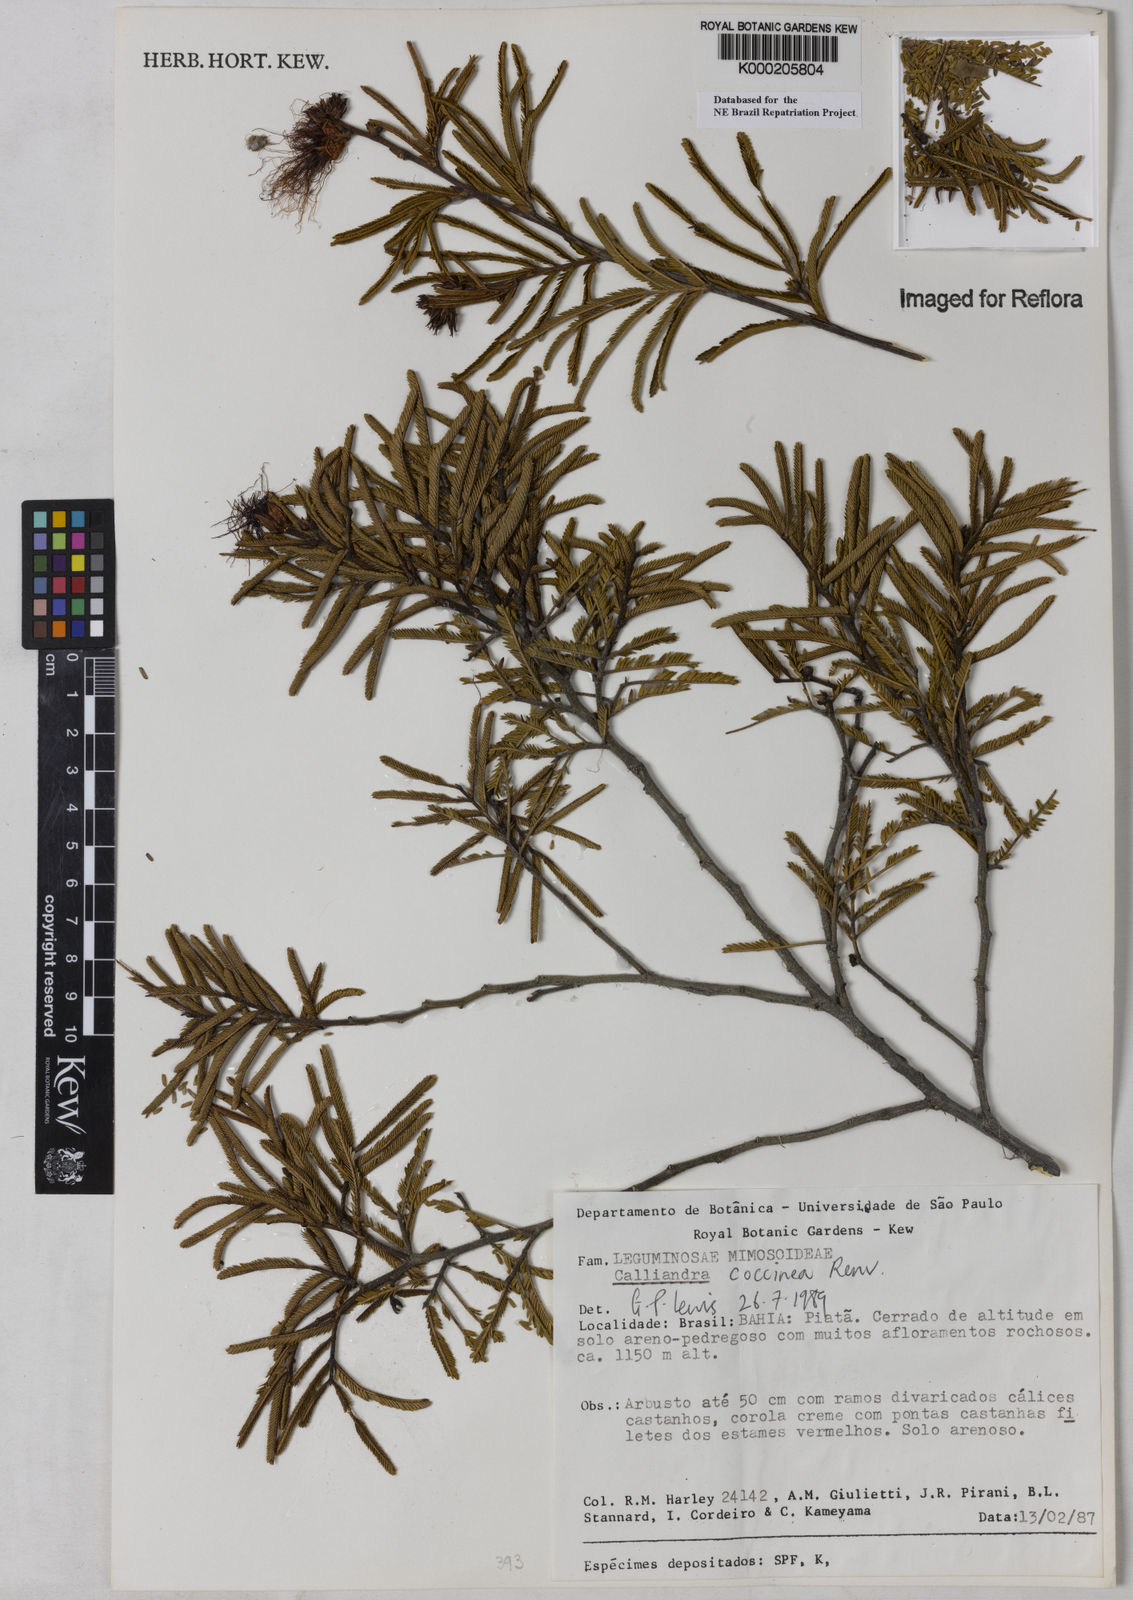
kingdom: Plantae
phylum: Tracheophyta
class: Magnoliopsida
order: Fabales
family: Fabaceae
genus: Calliandra
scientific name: Calliandra coccinea
